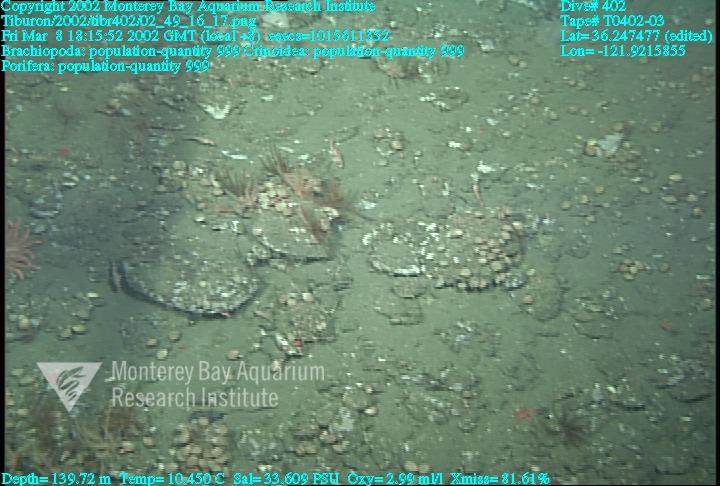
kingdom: Animalia
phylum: Porifera
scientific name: Porifera
